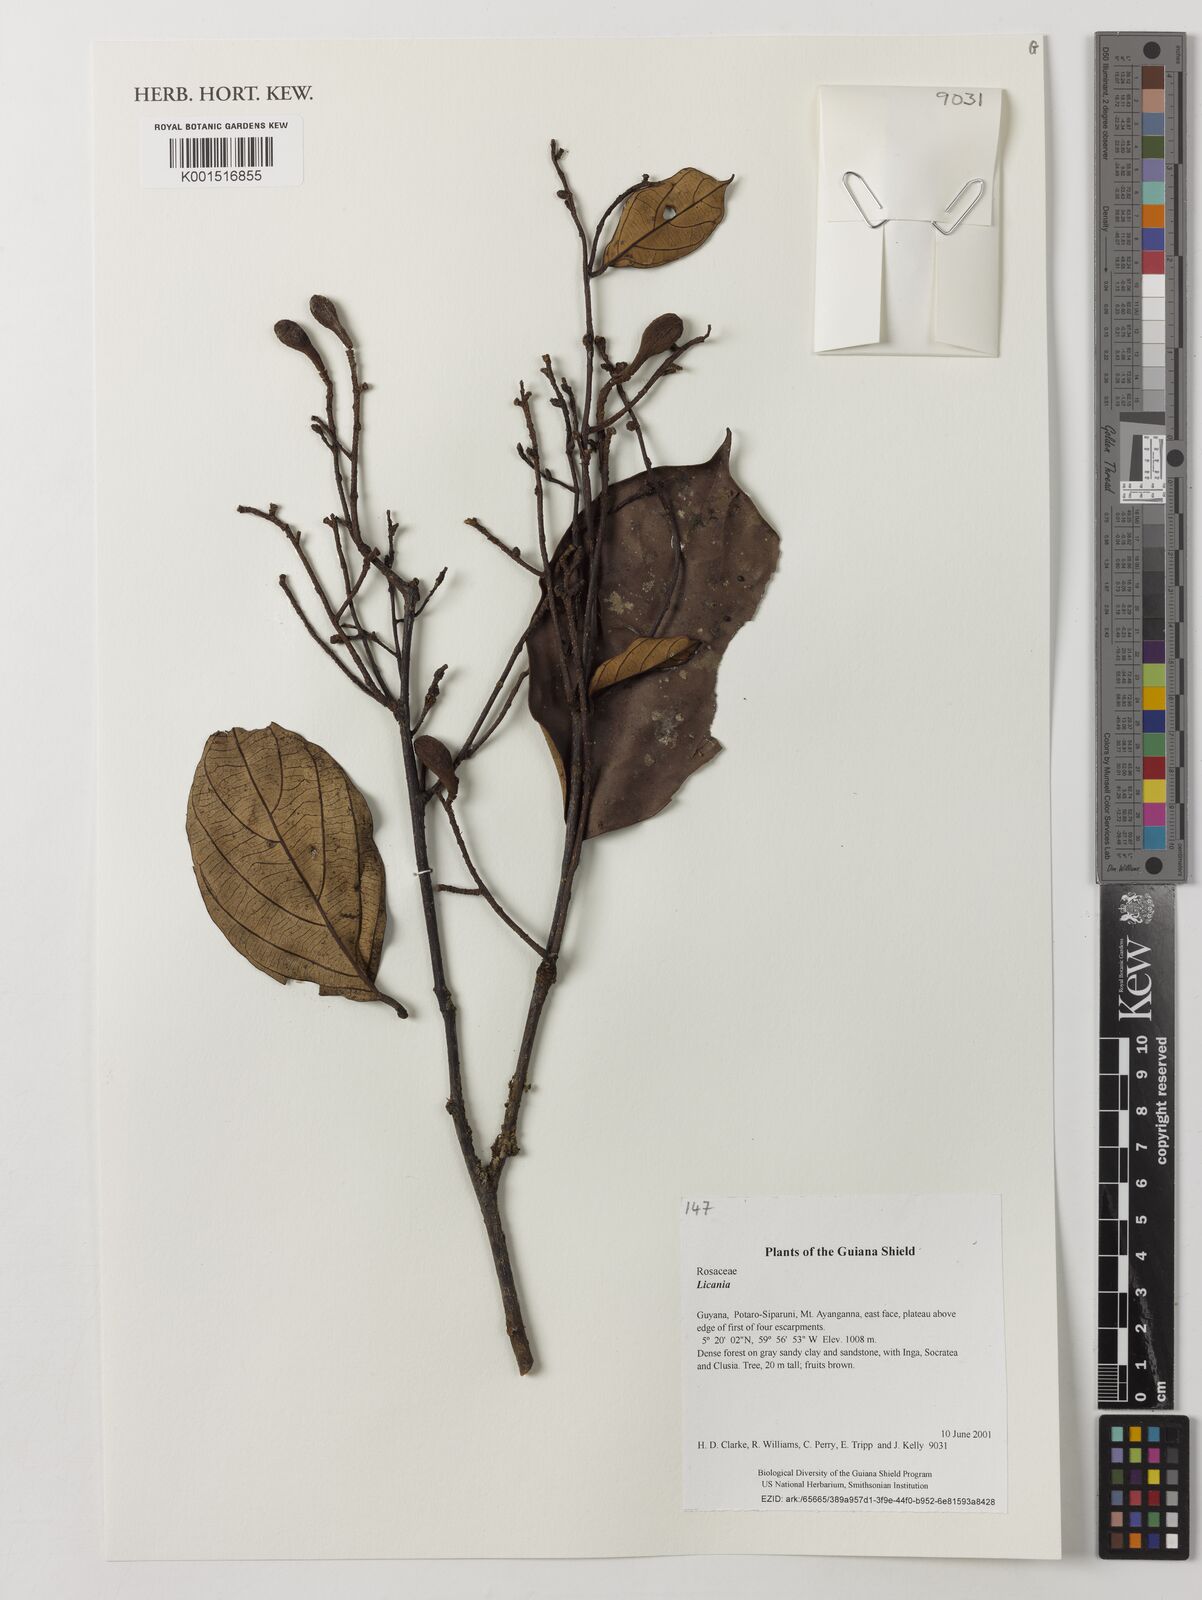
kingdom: Plantae
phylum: Tracheophyta
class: Magnoliopsida
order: Malpighiales
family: Chrysobalanaceae
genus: Licania
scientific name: Licania
